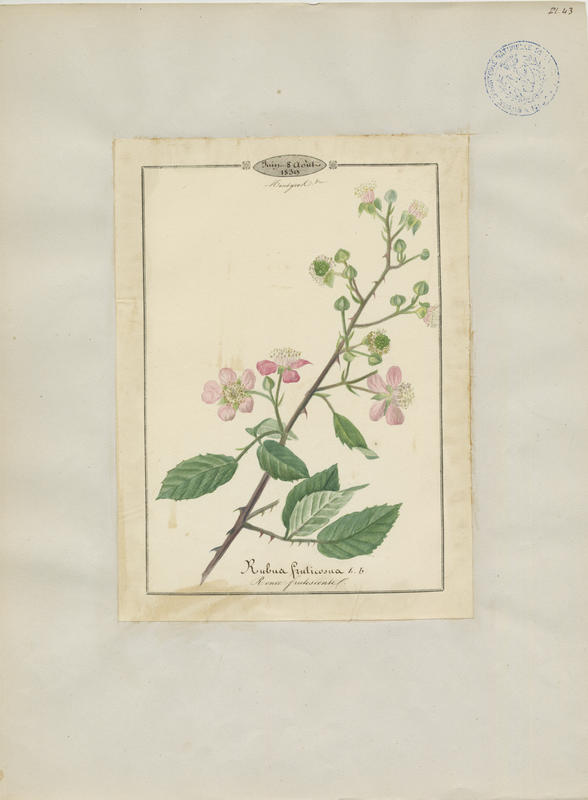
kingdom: Plantae
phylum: Tracheophyta
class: Magnoliopsida
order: Rosales
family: Rosaceae
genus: Rubus
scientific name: Rubus fruticosus
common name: Blackberry, bramble
